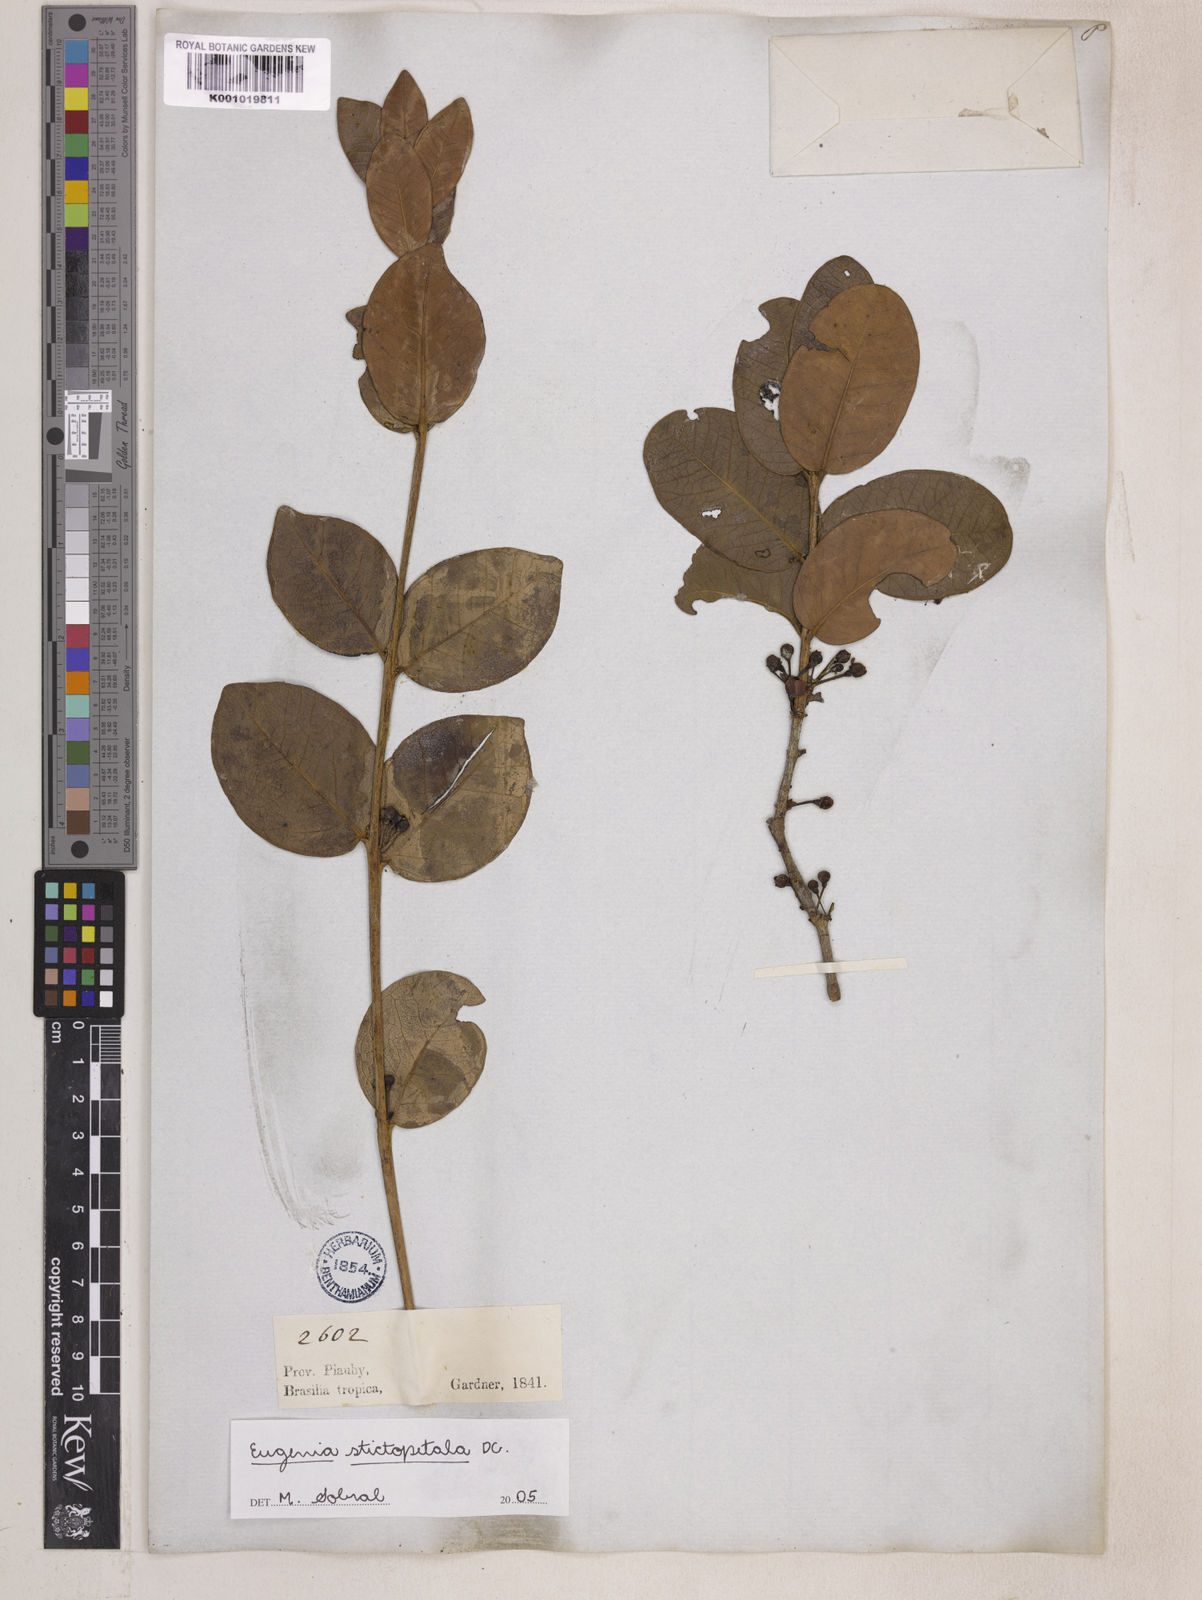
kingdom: Plantae
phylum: Tracheophyta
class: Magnoliopsida
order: Myrtales
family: Myrtaceae
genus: Eugenia
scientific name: Eugenia stictopetala
